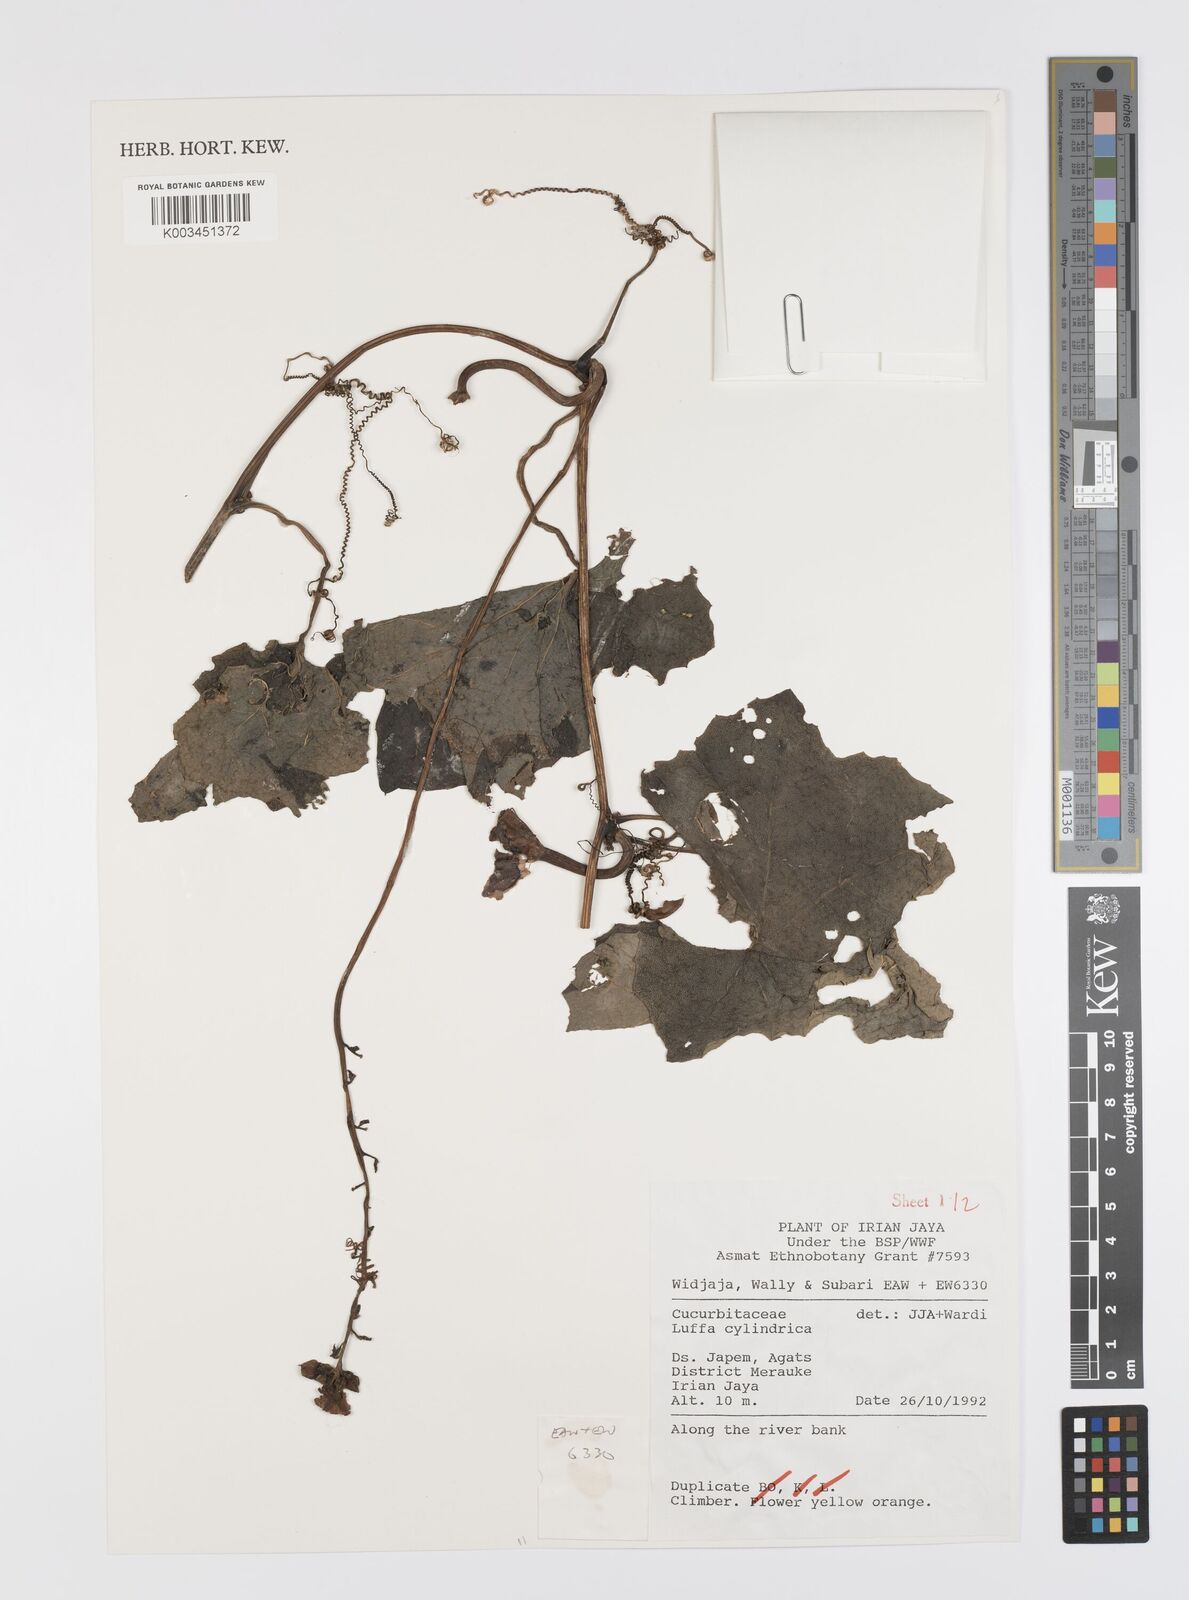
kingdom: Plantae
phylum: Tracheophyta
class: Magnoliopsida
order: Cucurbitales
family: Cucurbitaceae
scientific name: Cucurbitaceae
